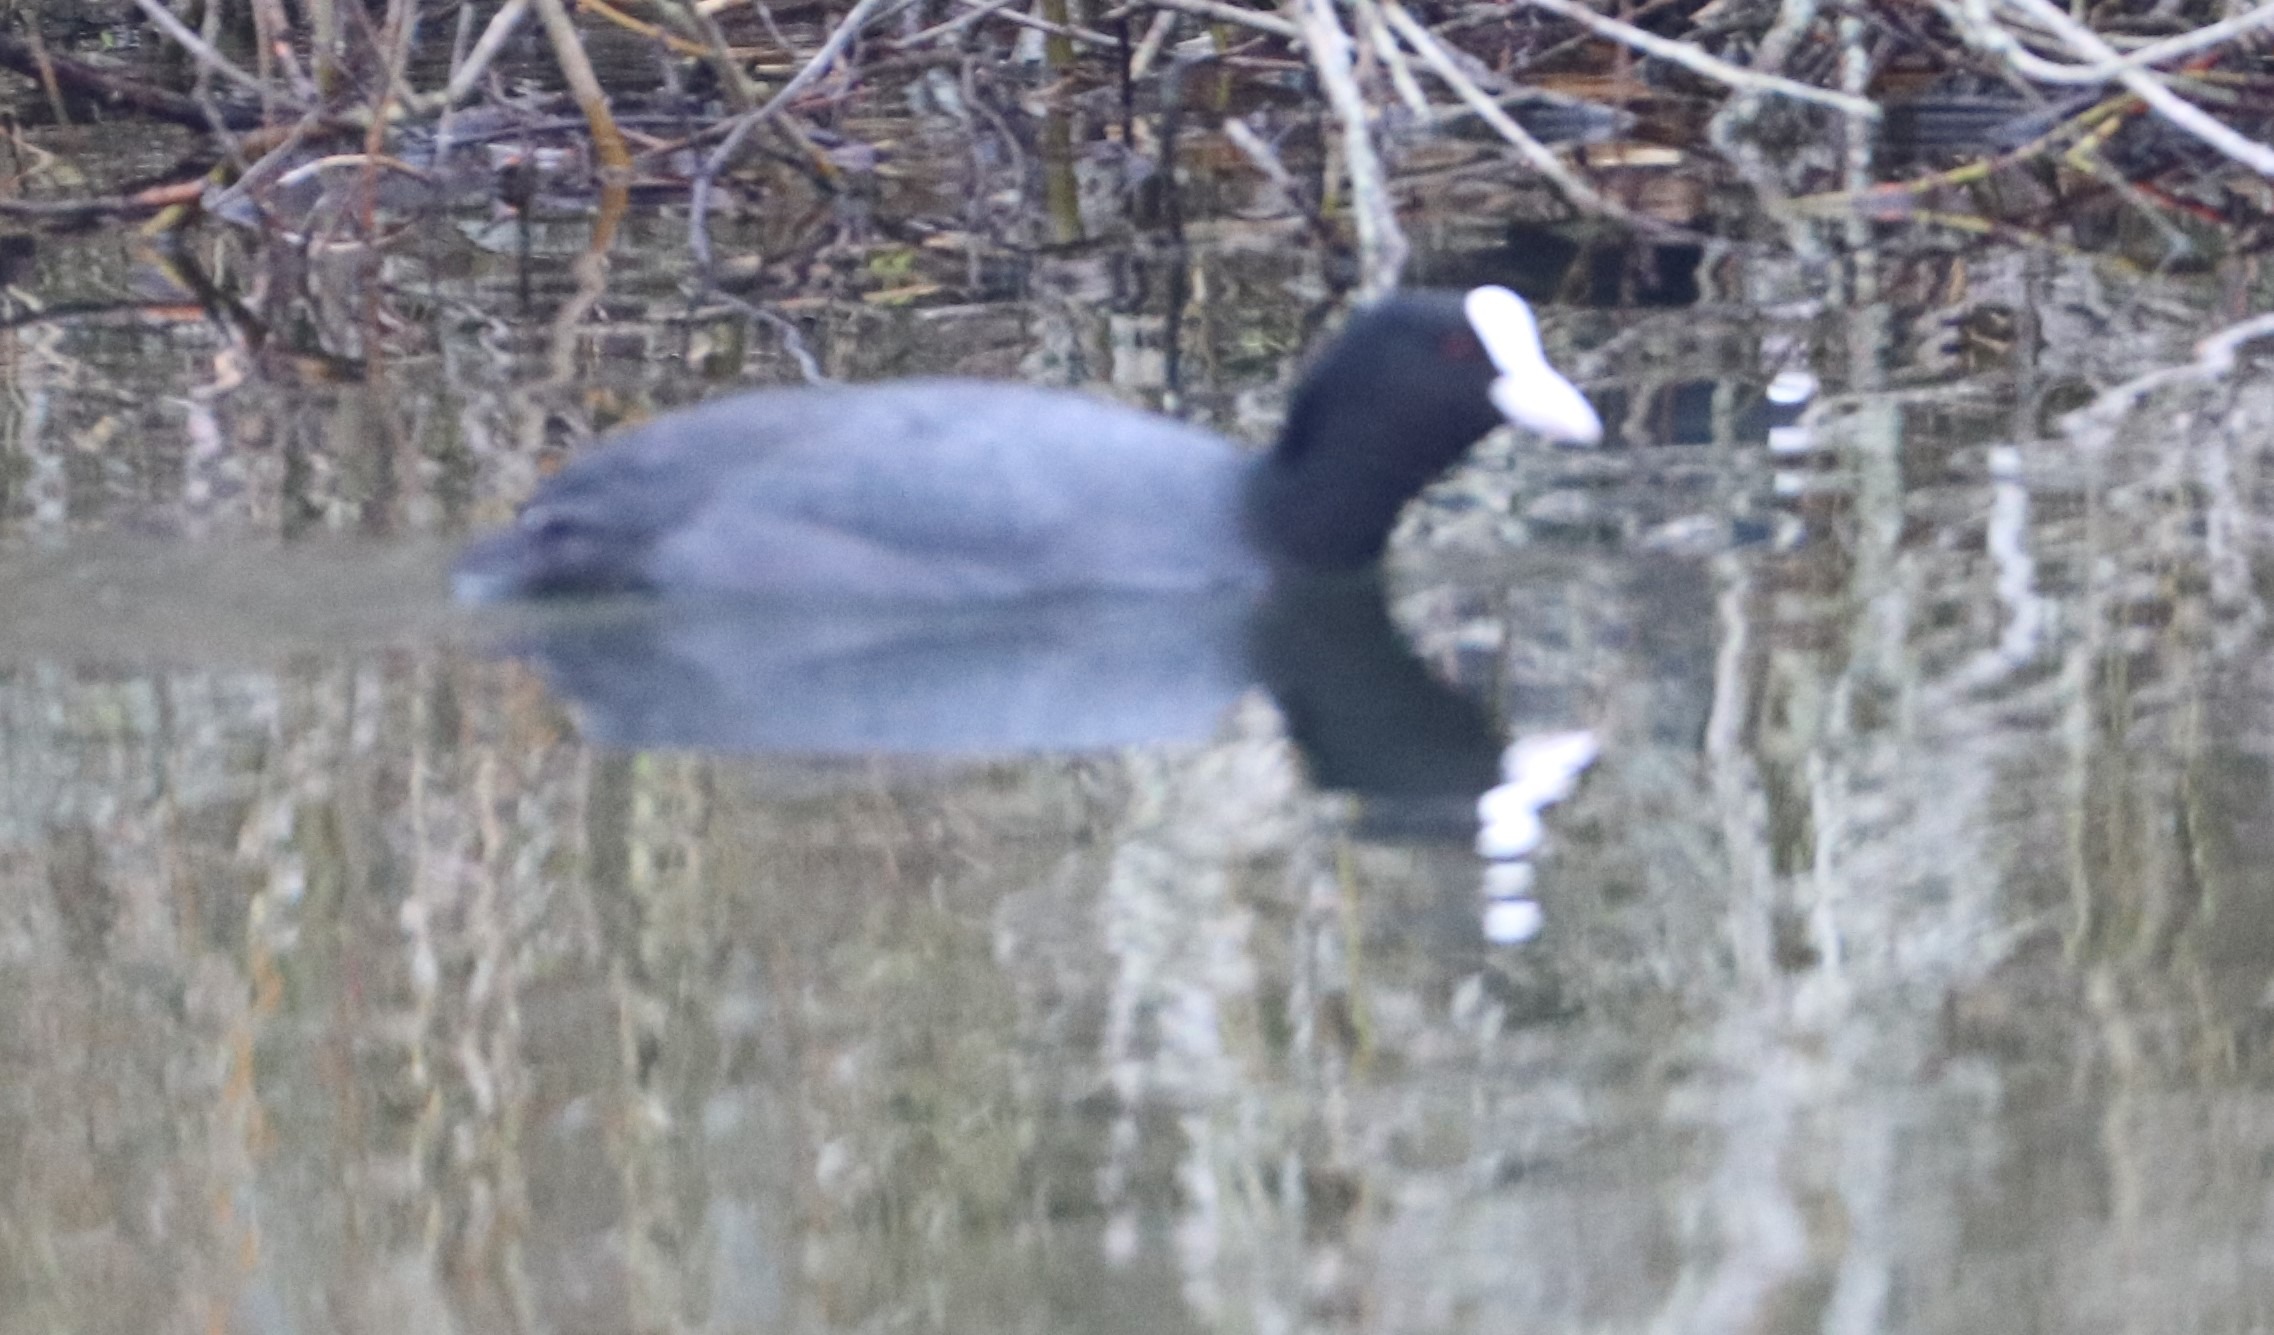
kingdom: Animalia
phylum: Chordata
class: Aves
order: Gruiformes
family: Rallidae
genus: Fulica
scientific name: Fulica atra
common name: Blishøne
